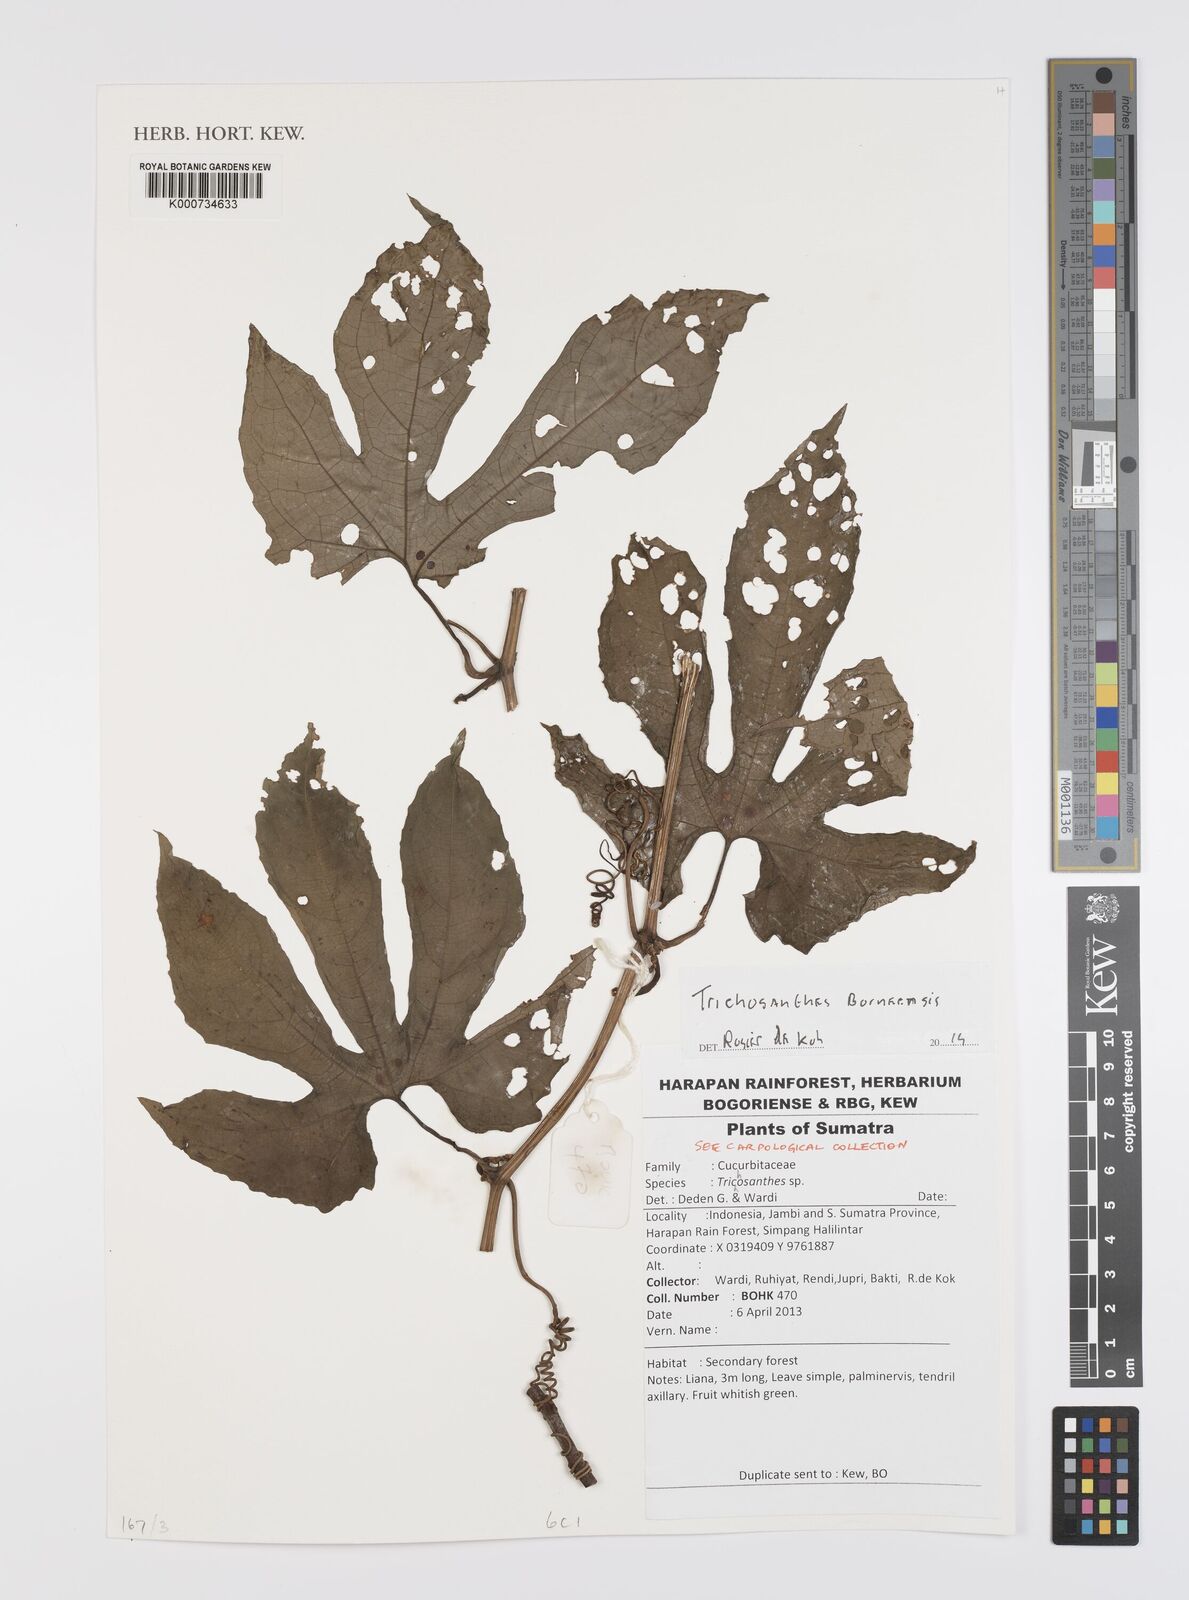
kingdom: Plantae
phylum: Tracheophyta
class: Magnoliopsida
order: Cucurbitales
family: Cucurbitaceae
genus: Trichosanthes
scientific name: Trichosanthes borneensis
